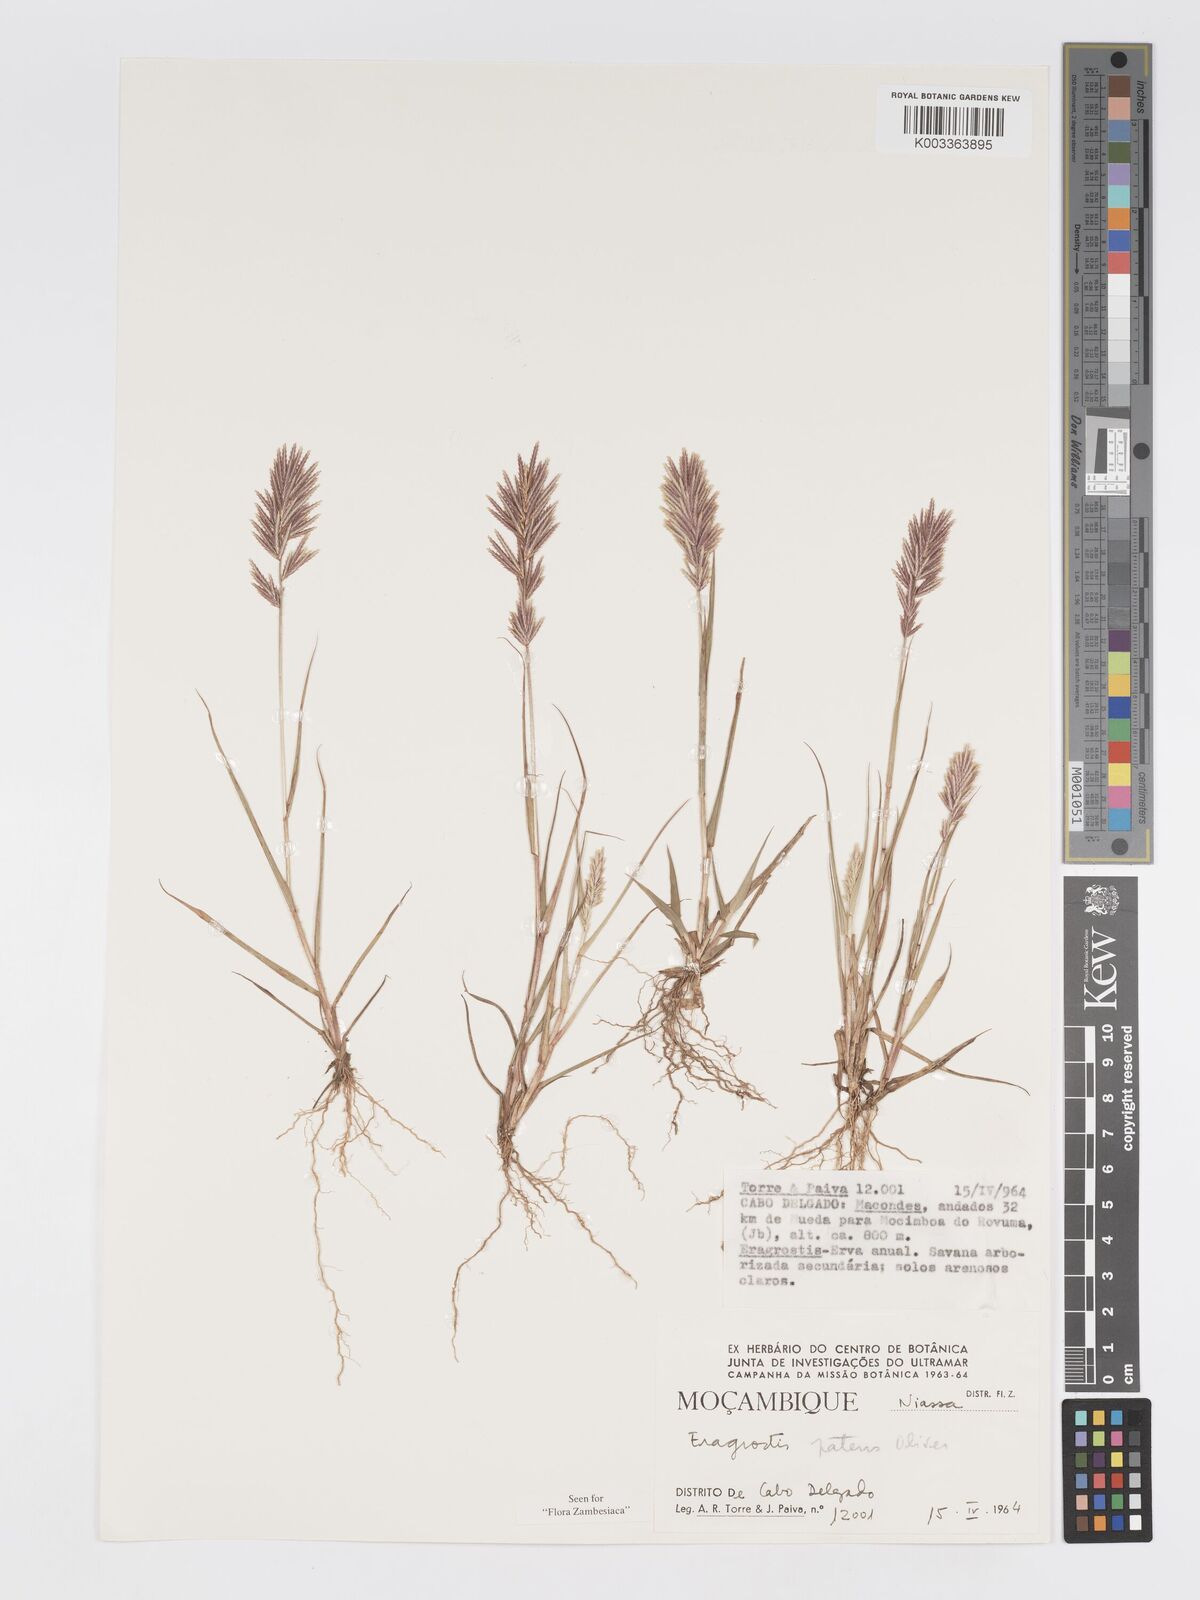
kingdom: Plantae
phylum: Tracheophyta
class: Liliopsida
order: Poales
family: Poaceae
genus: Eragrostis
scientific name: Eragrostis patens
